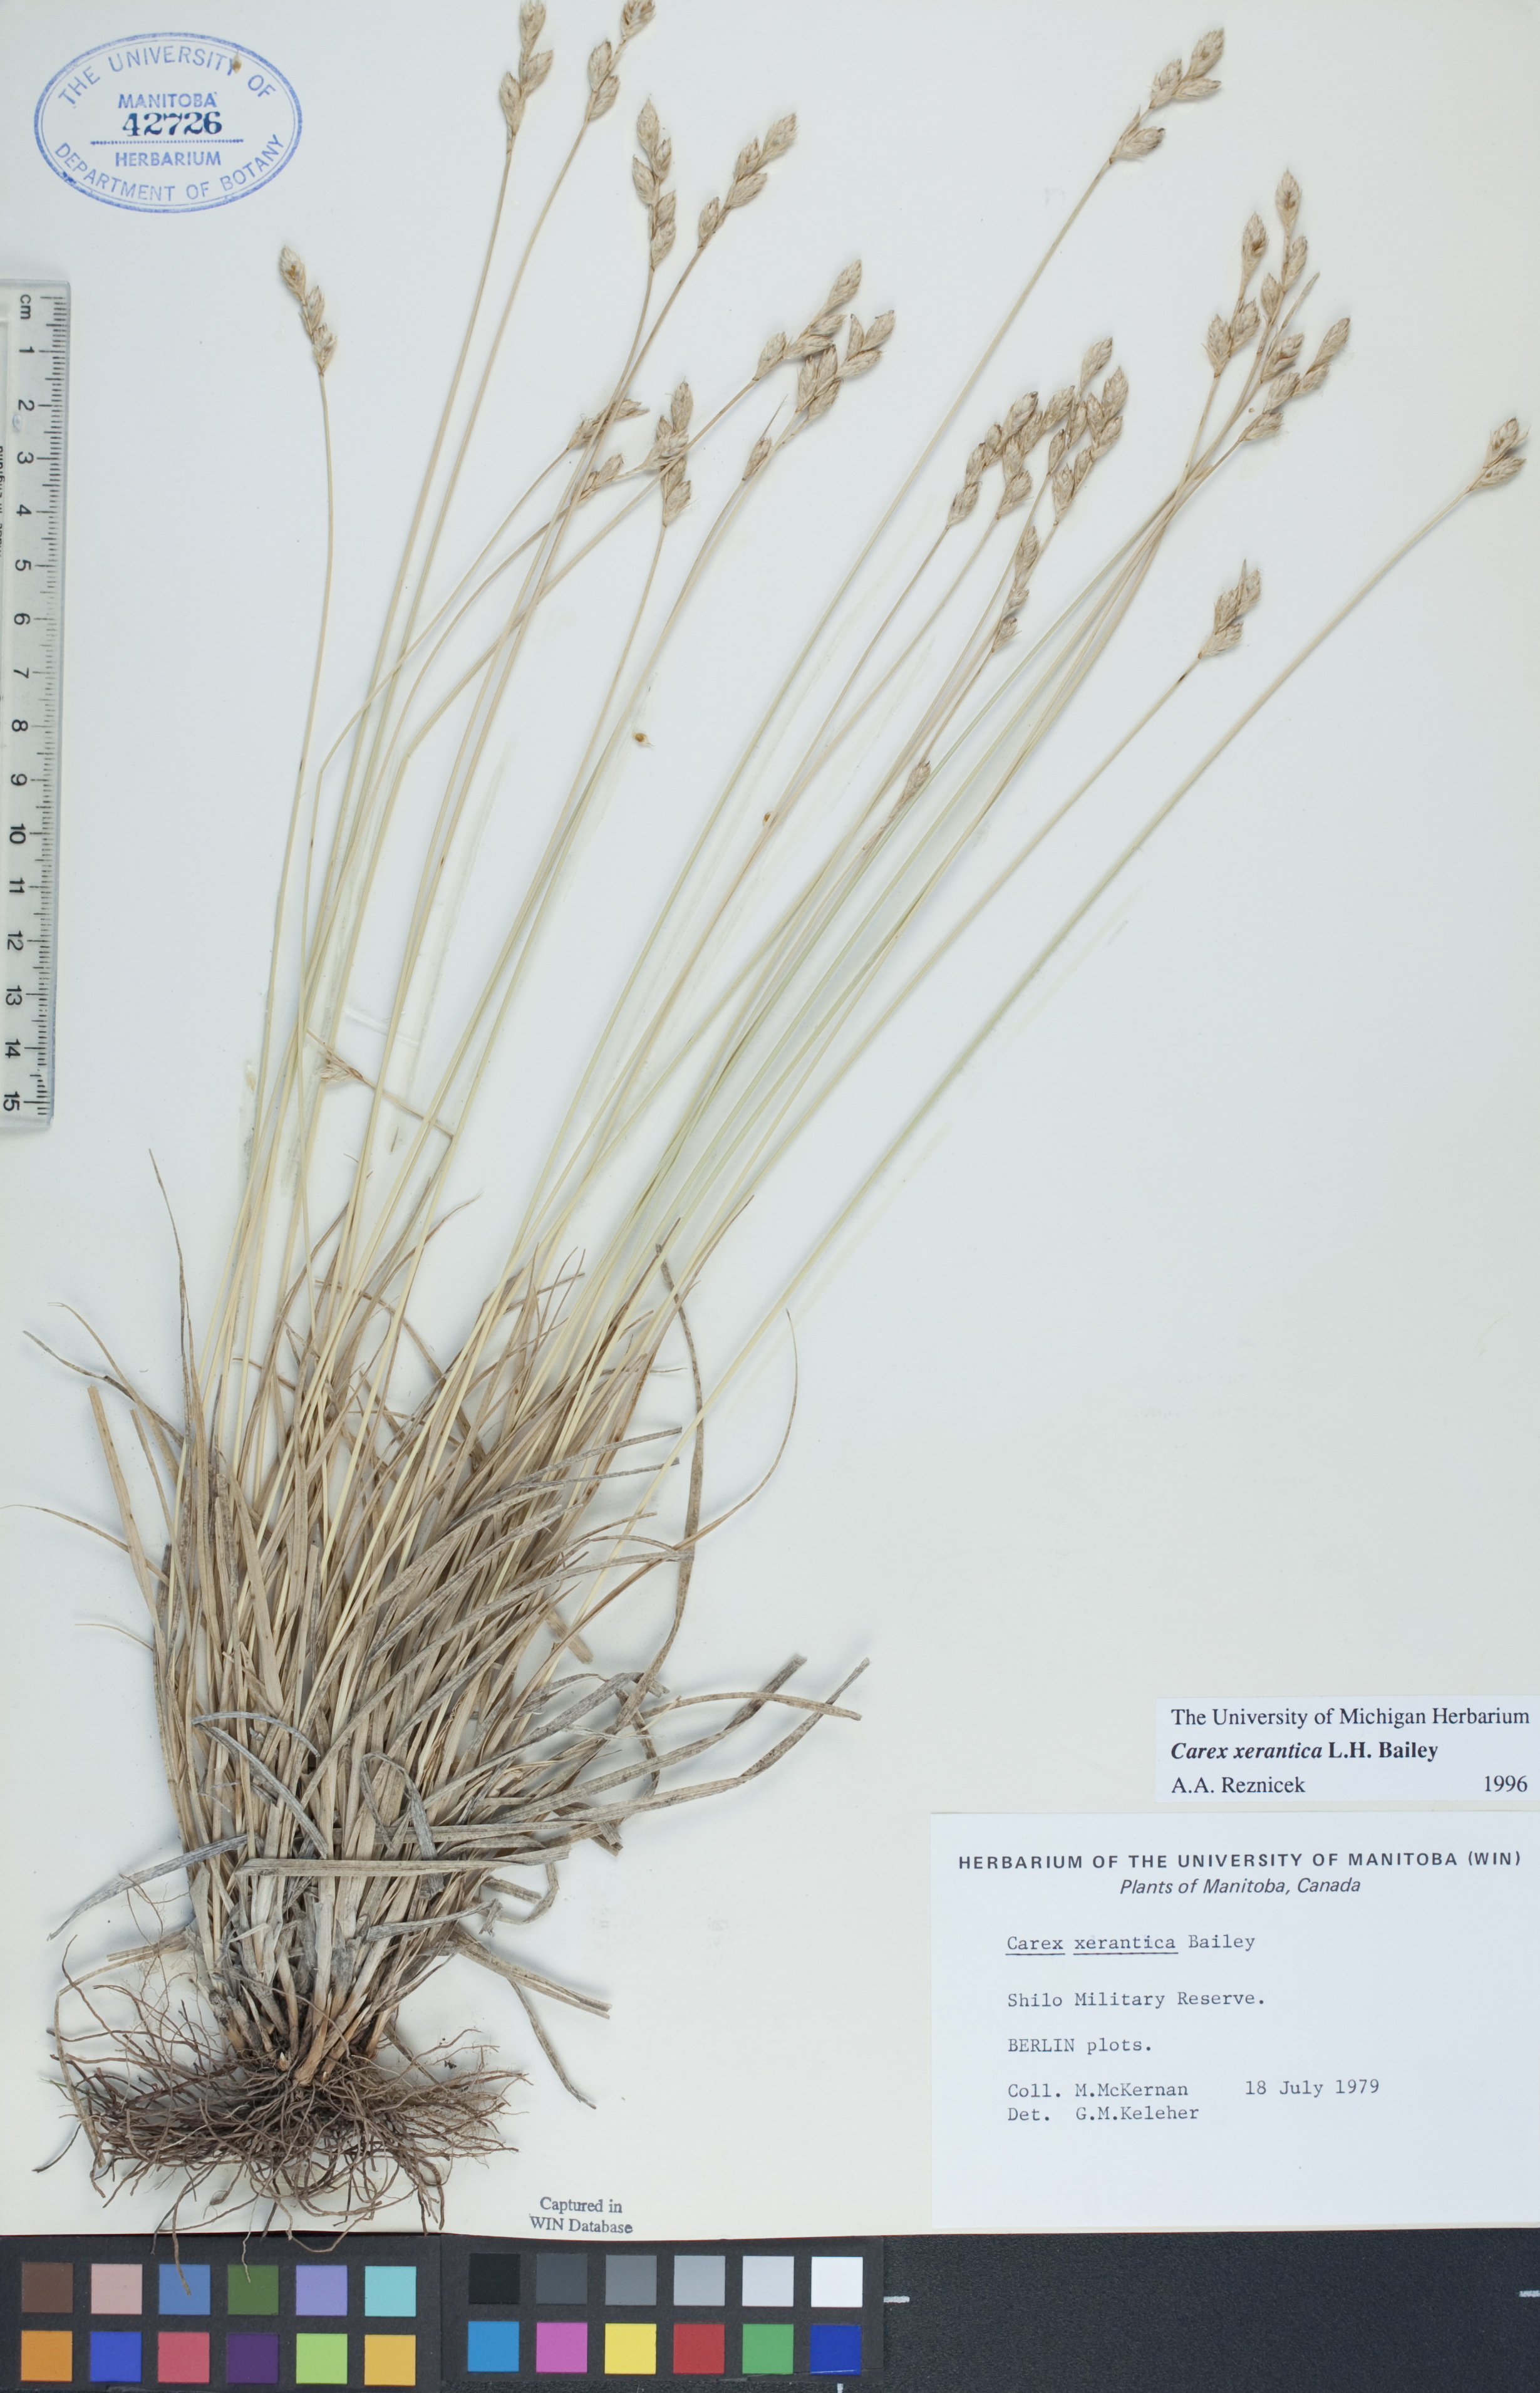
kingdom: Plantae
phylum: Tracheophyta
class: Liliopsida
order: Poales
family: Cyperaceae
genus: Carex
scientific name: Carex xerantica
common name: Dryland sedge
